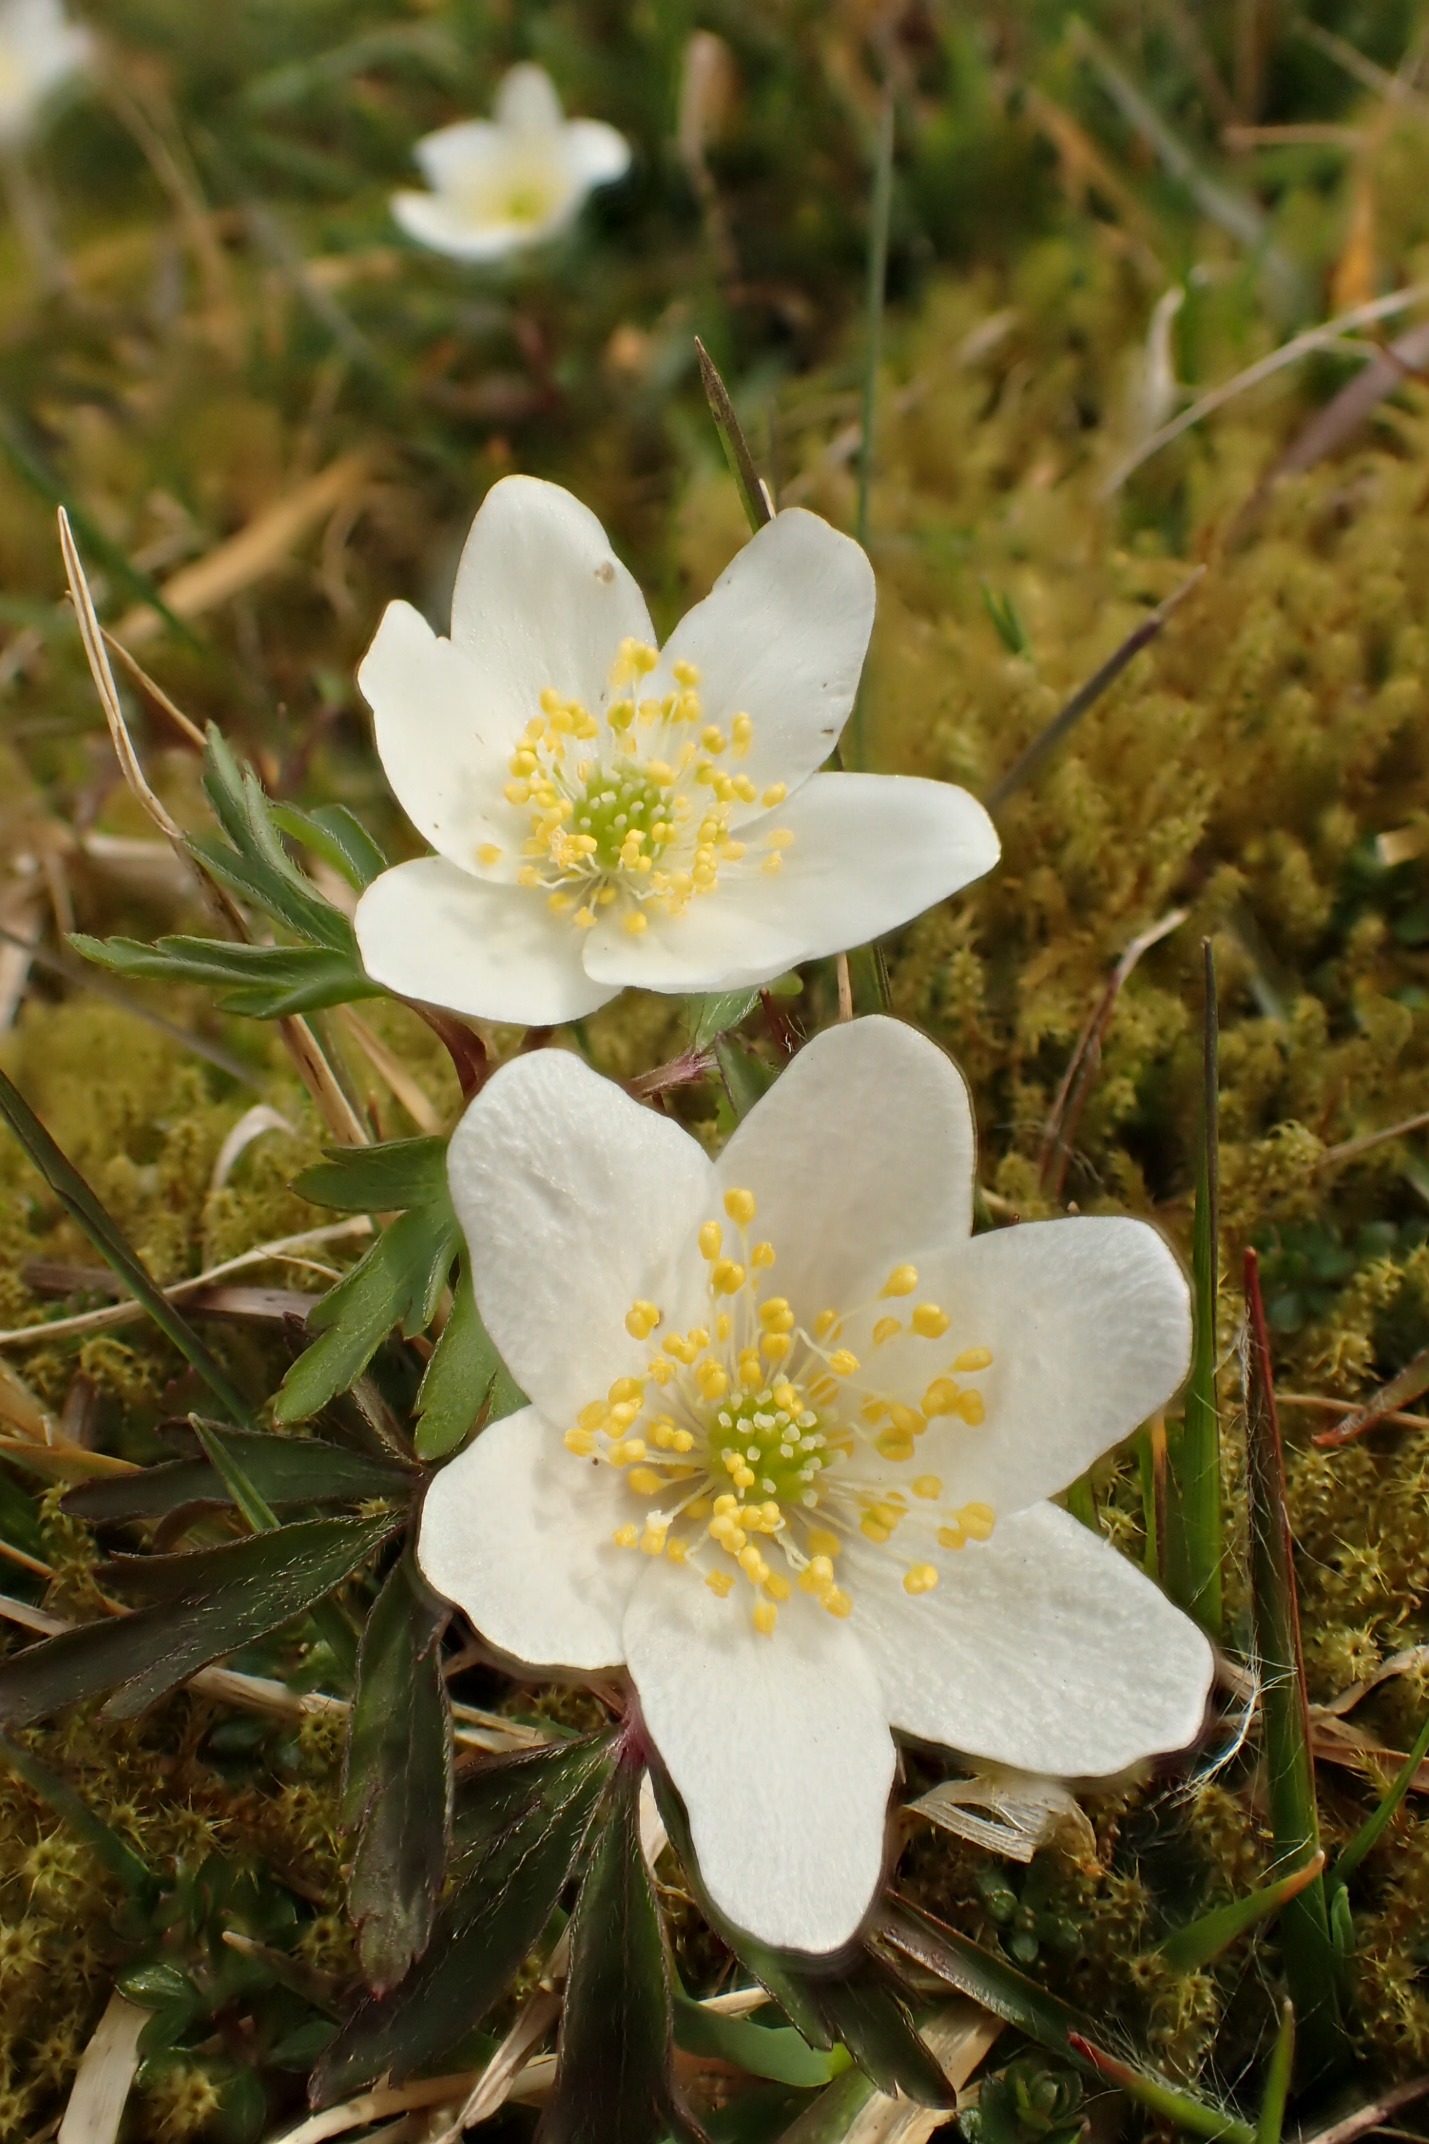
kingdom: Plantae
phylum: Tracheophyta
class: Magnoliopsida
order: Ranunculales
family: Ranunculaceae
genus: Anemone
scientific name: Anemone nemorosa
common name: Hvid anemone
